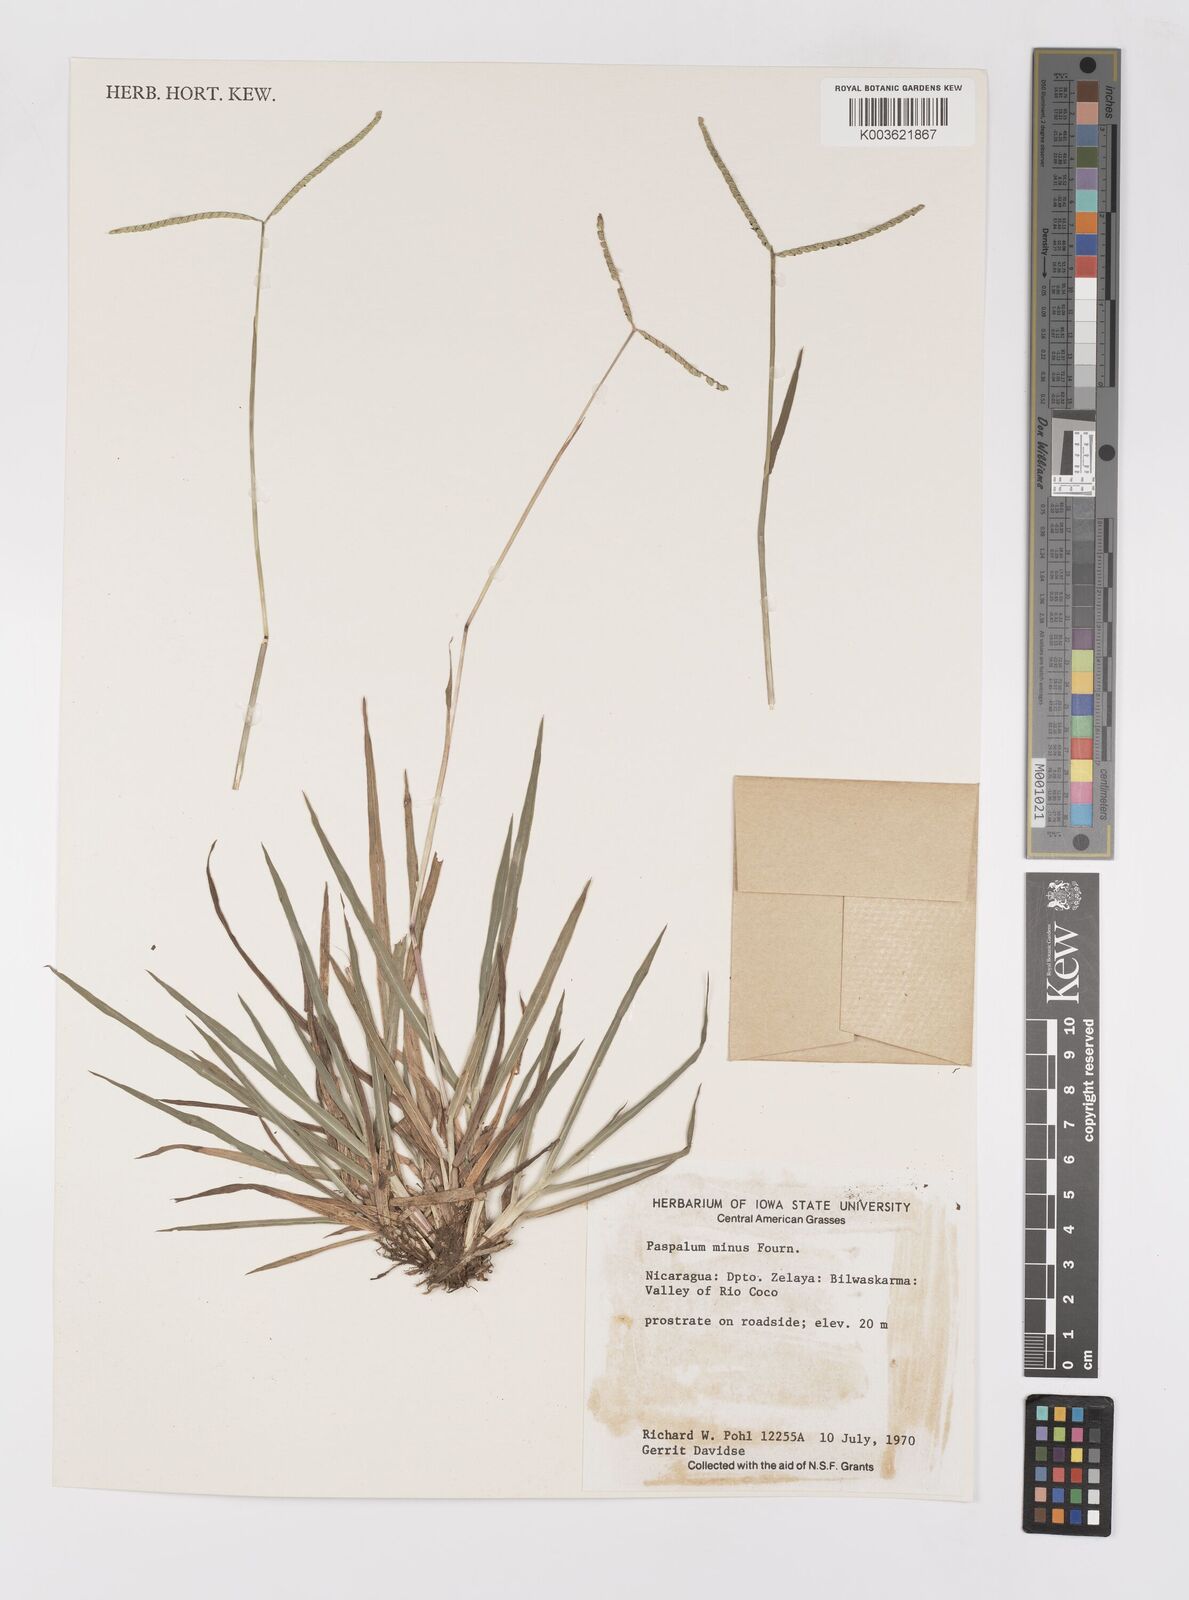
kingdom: Plantae
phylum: Tracheophyta
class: Liliopsida
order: Poales
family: Poaceae
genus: Paspalum
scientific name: Paspalum minus
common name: Matted paspalum
